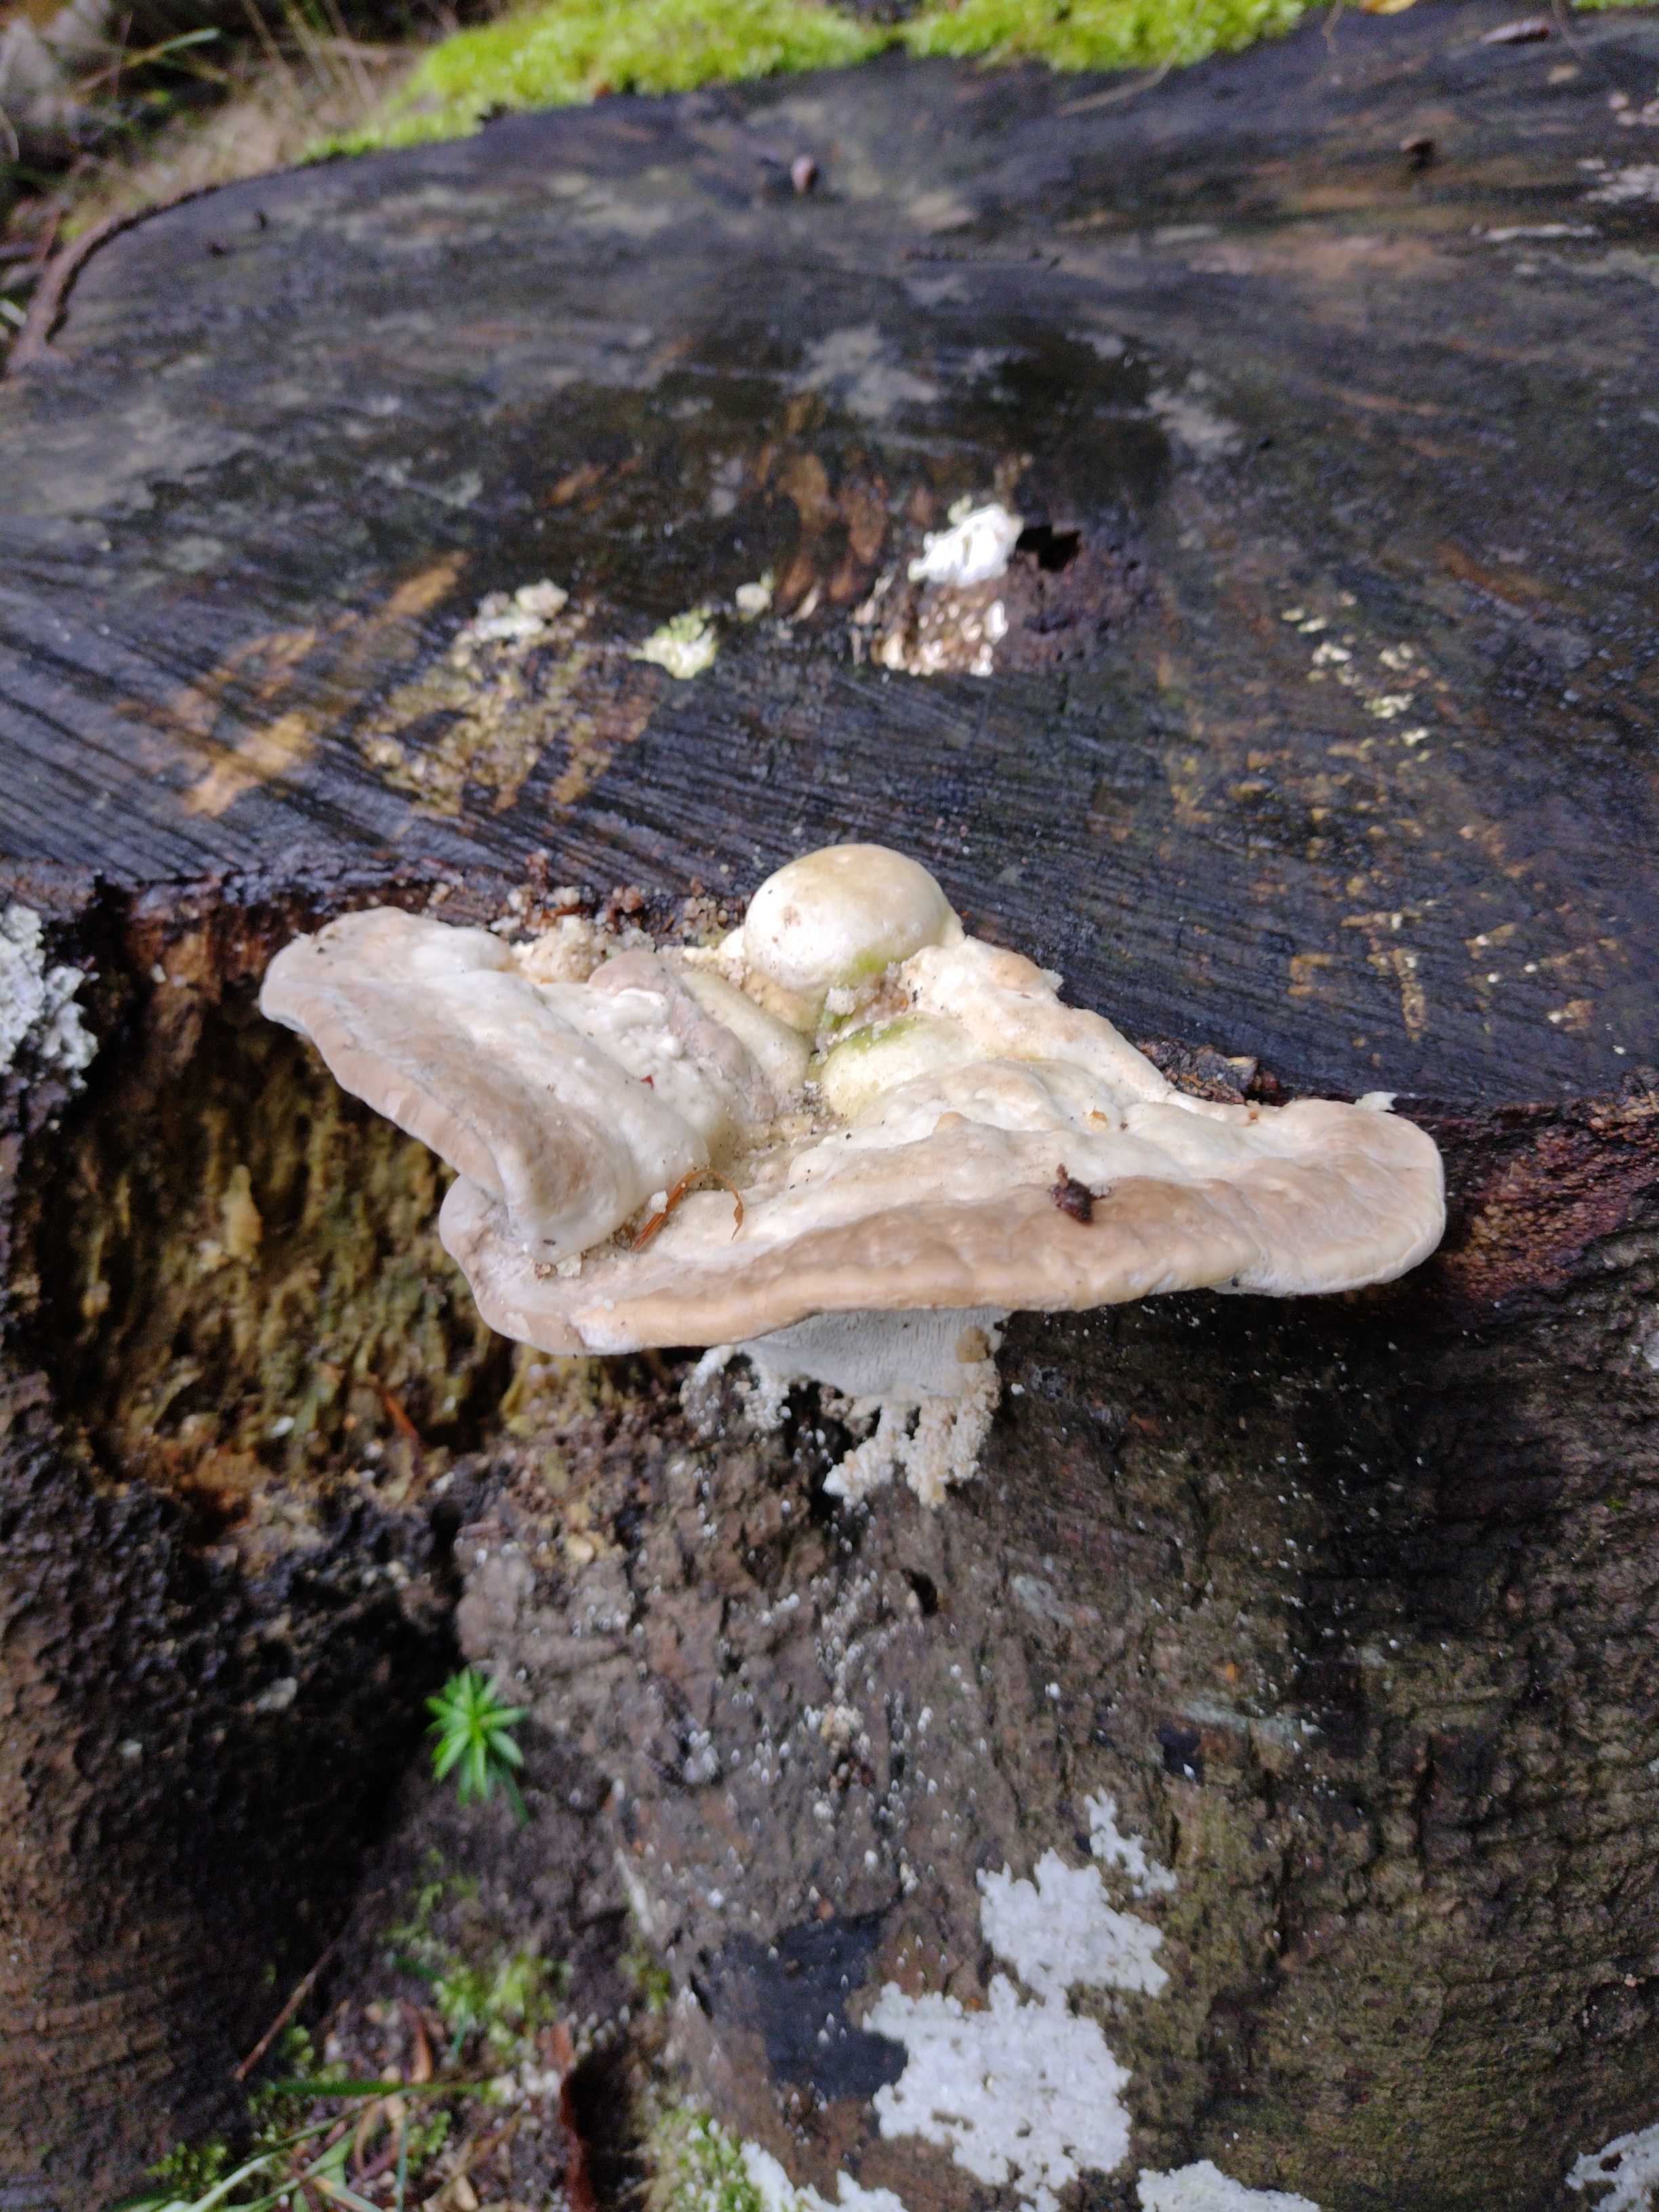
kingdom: Fungi
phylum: Basidiomycota
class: Agaricomycetes
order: Polyporales
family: Polyporaceae
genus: Trametes
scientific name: Trametes gibbosa
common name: puklet læderporesvamp
